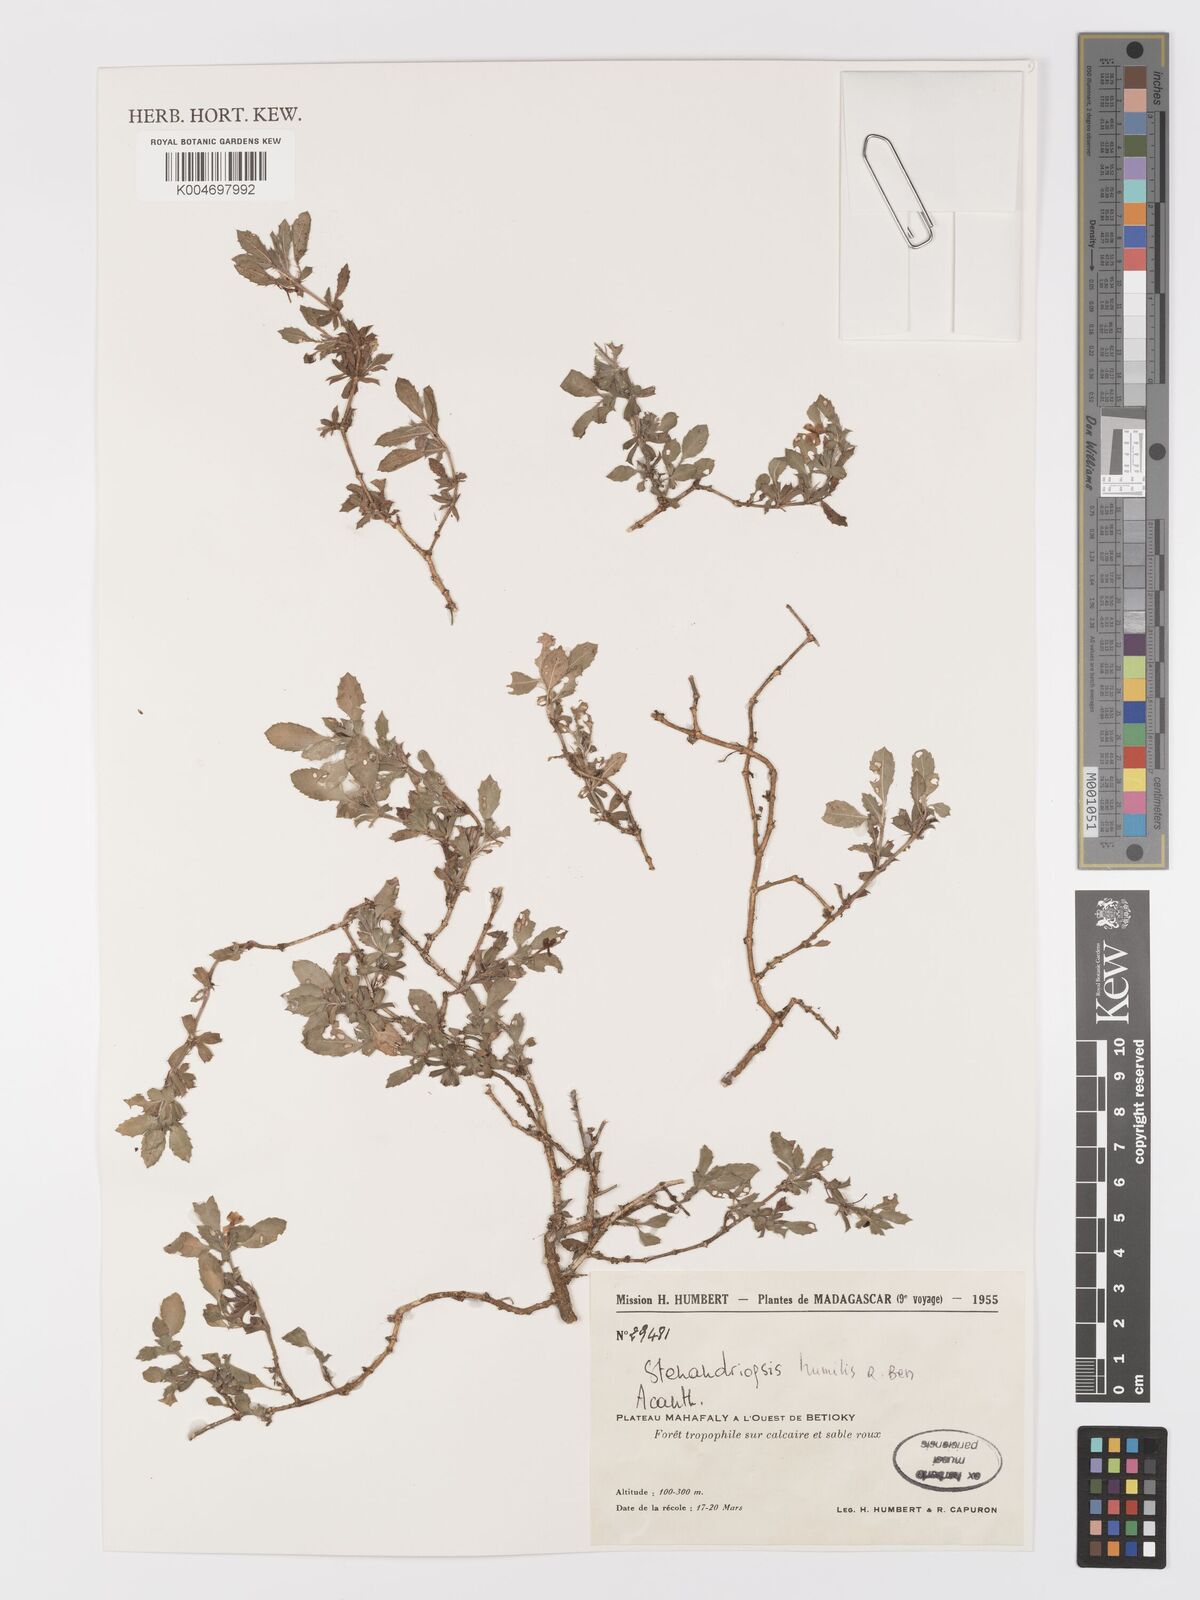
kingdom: Plantae
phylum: Tracheophyta
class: Magnoliopsida
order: Lamiales
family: Acanthaceae
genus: Stenandriopsis
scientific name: Stenandriopsis keraudrenae
